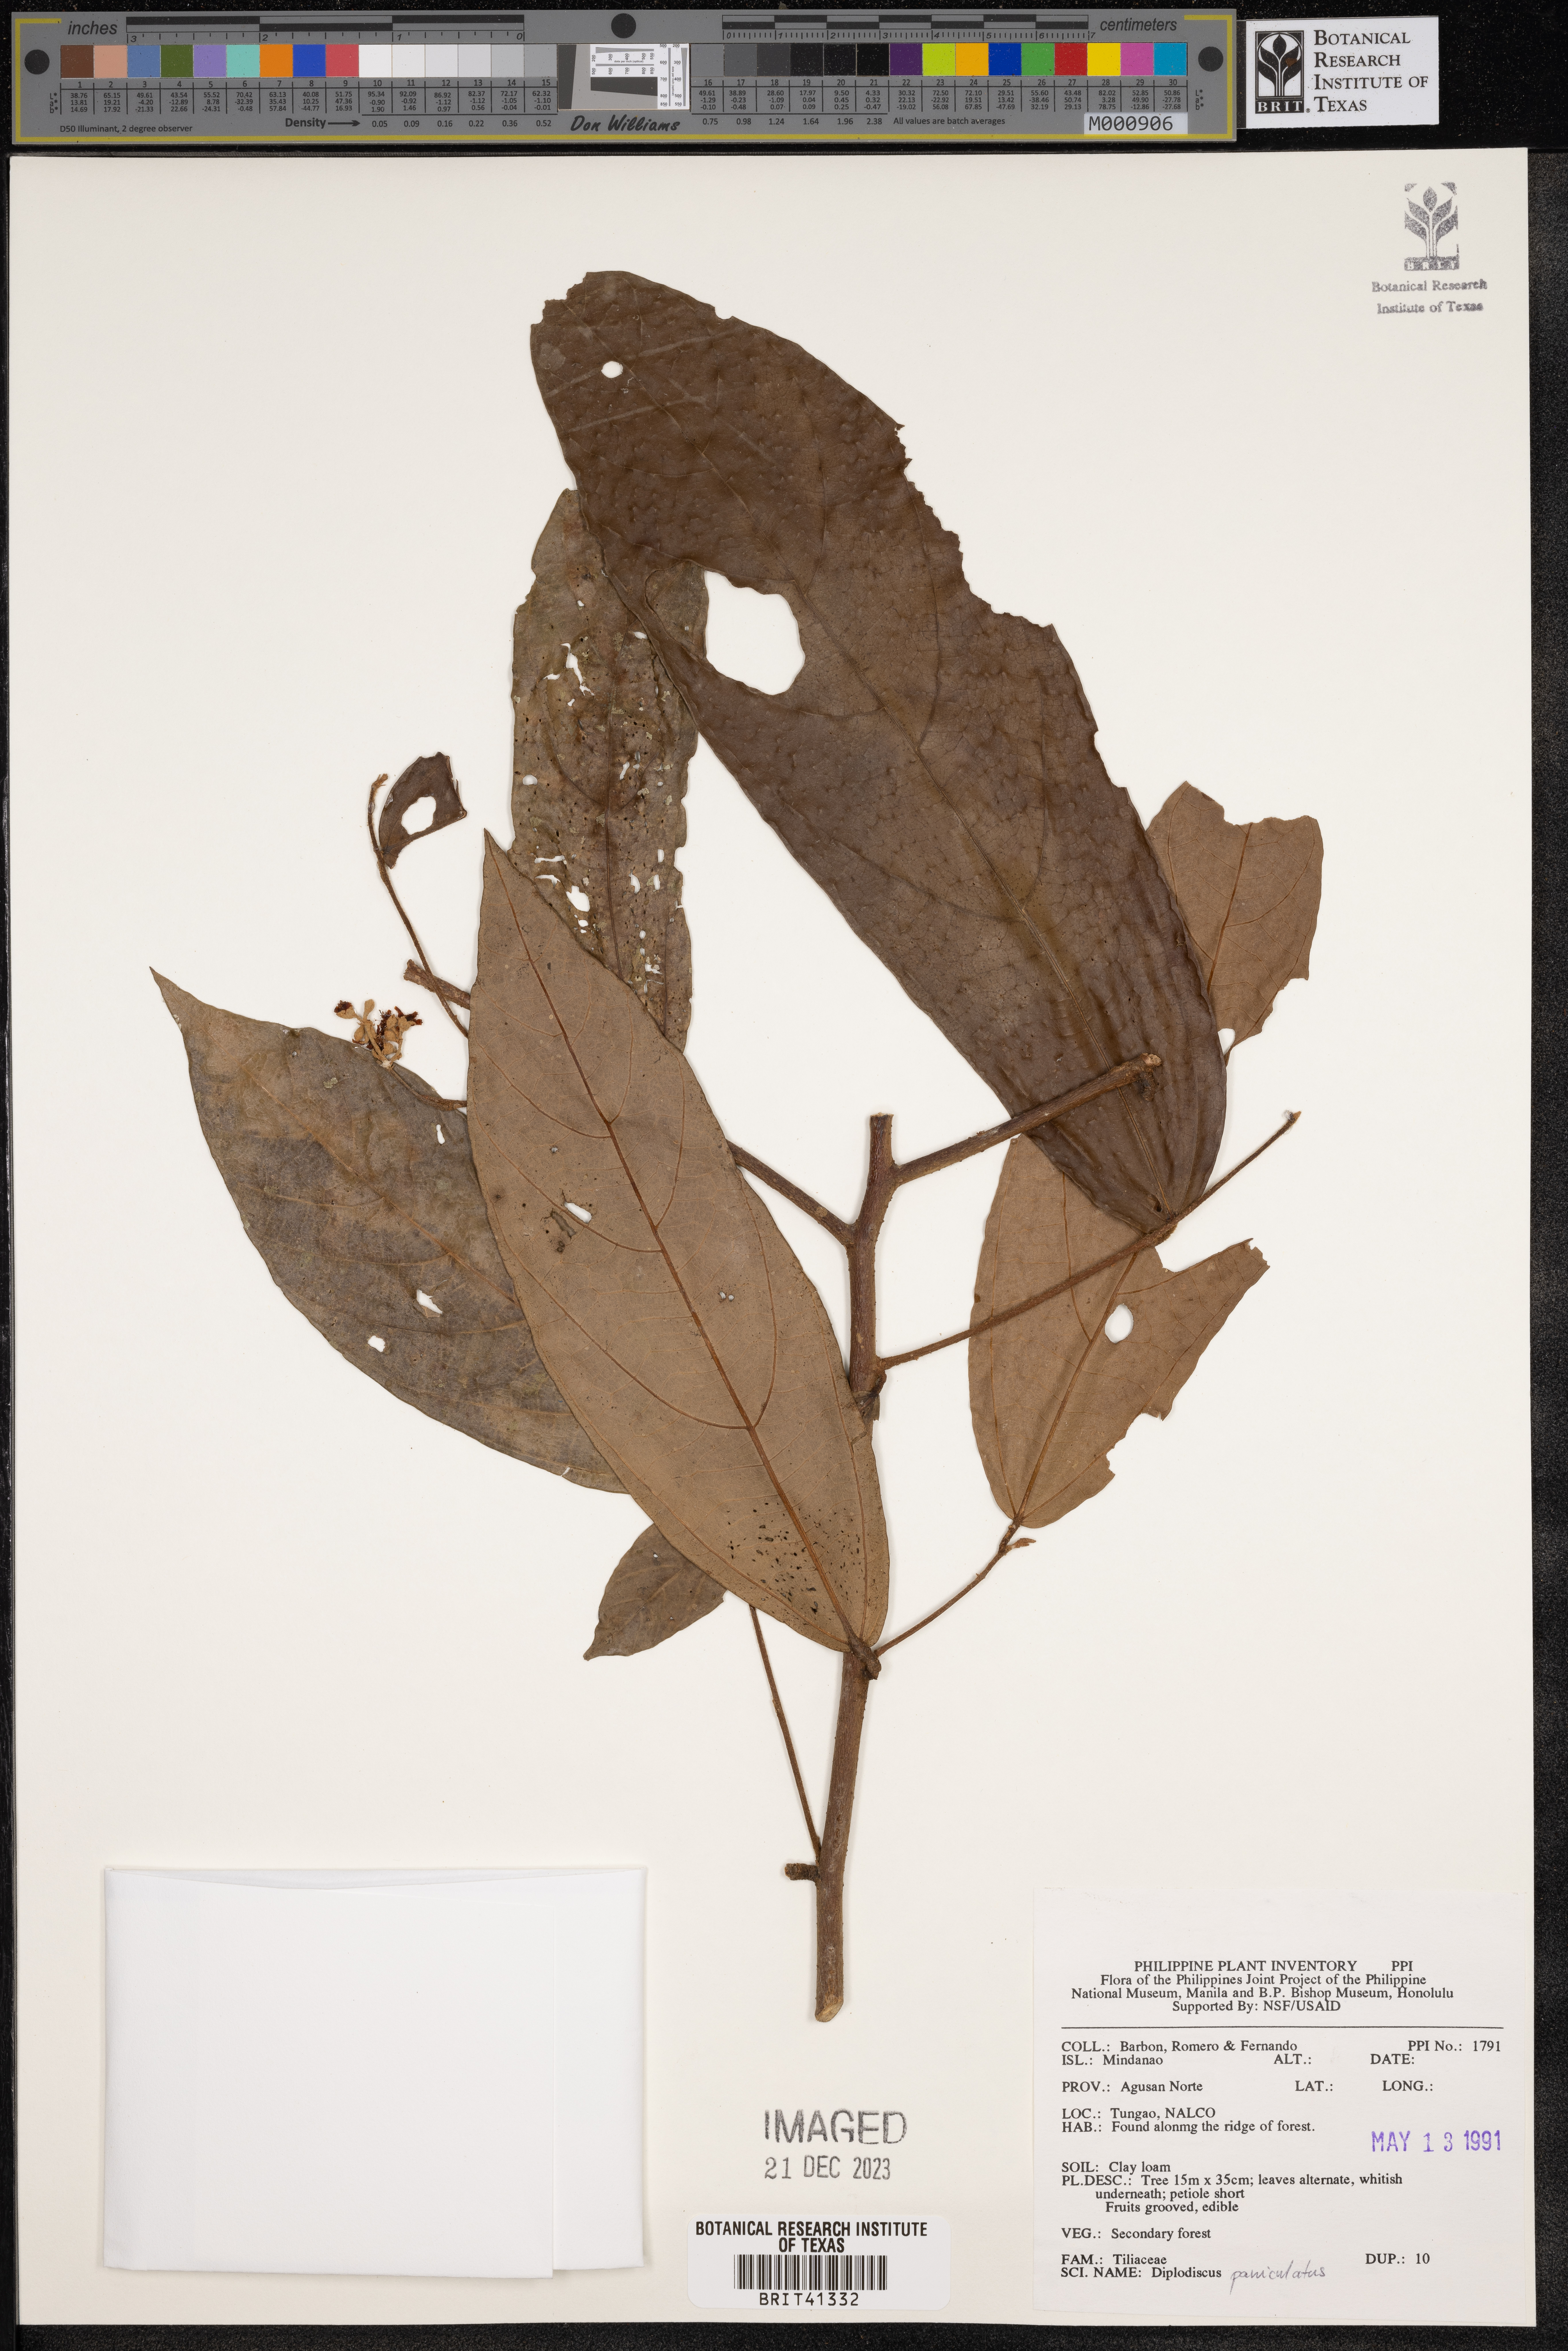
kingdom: Plantae
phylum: Tracheophyta
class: Magnoliopsida
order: Malvales
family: Malvaceae
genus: Diplodiscus
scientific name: Diplodiscus paniculatus
